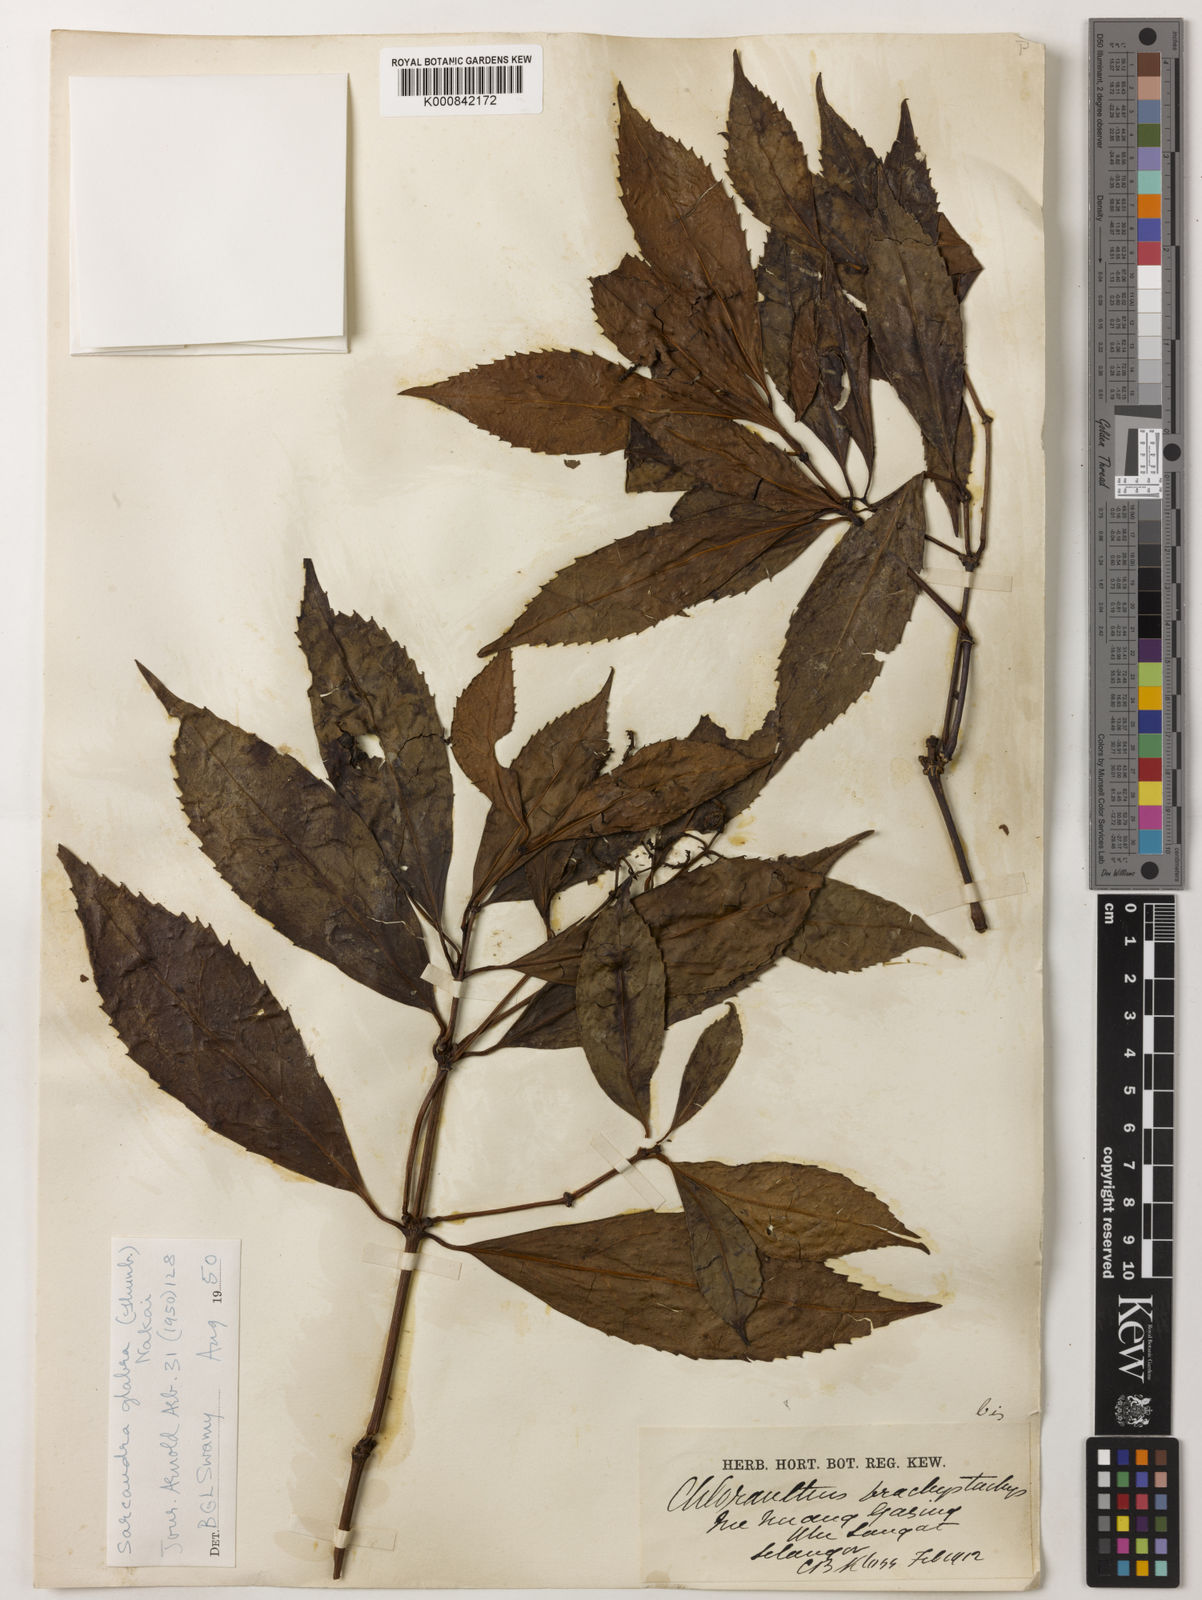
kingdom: Plantae
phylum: Tracheophyta
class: Magnoliopsida
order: Chloranthales
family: Chloranthaceae
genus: Sarcandra
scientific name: Sarcandra glabra
